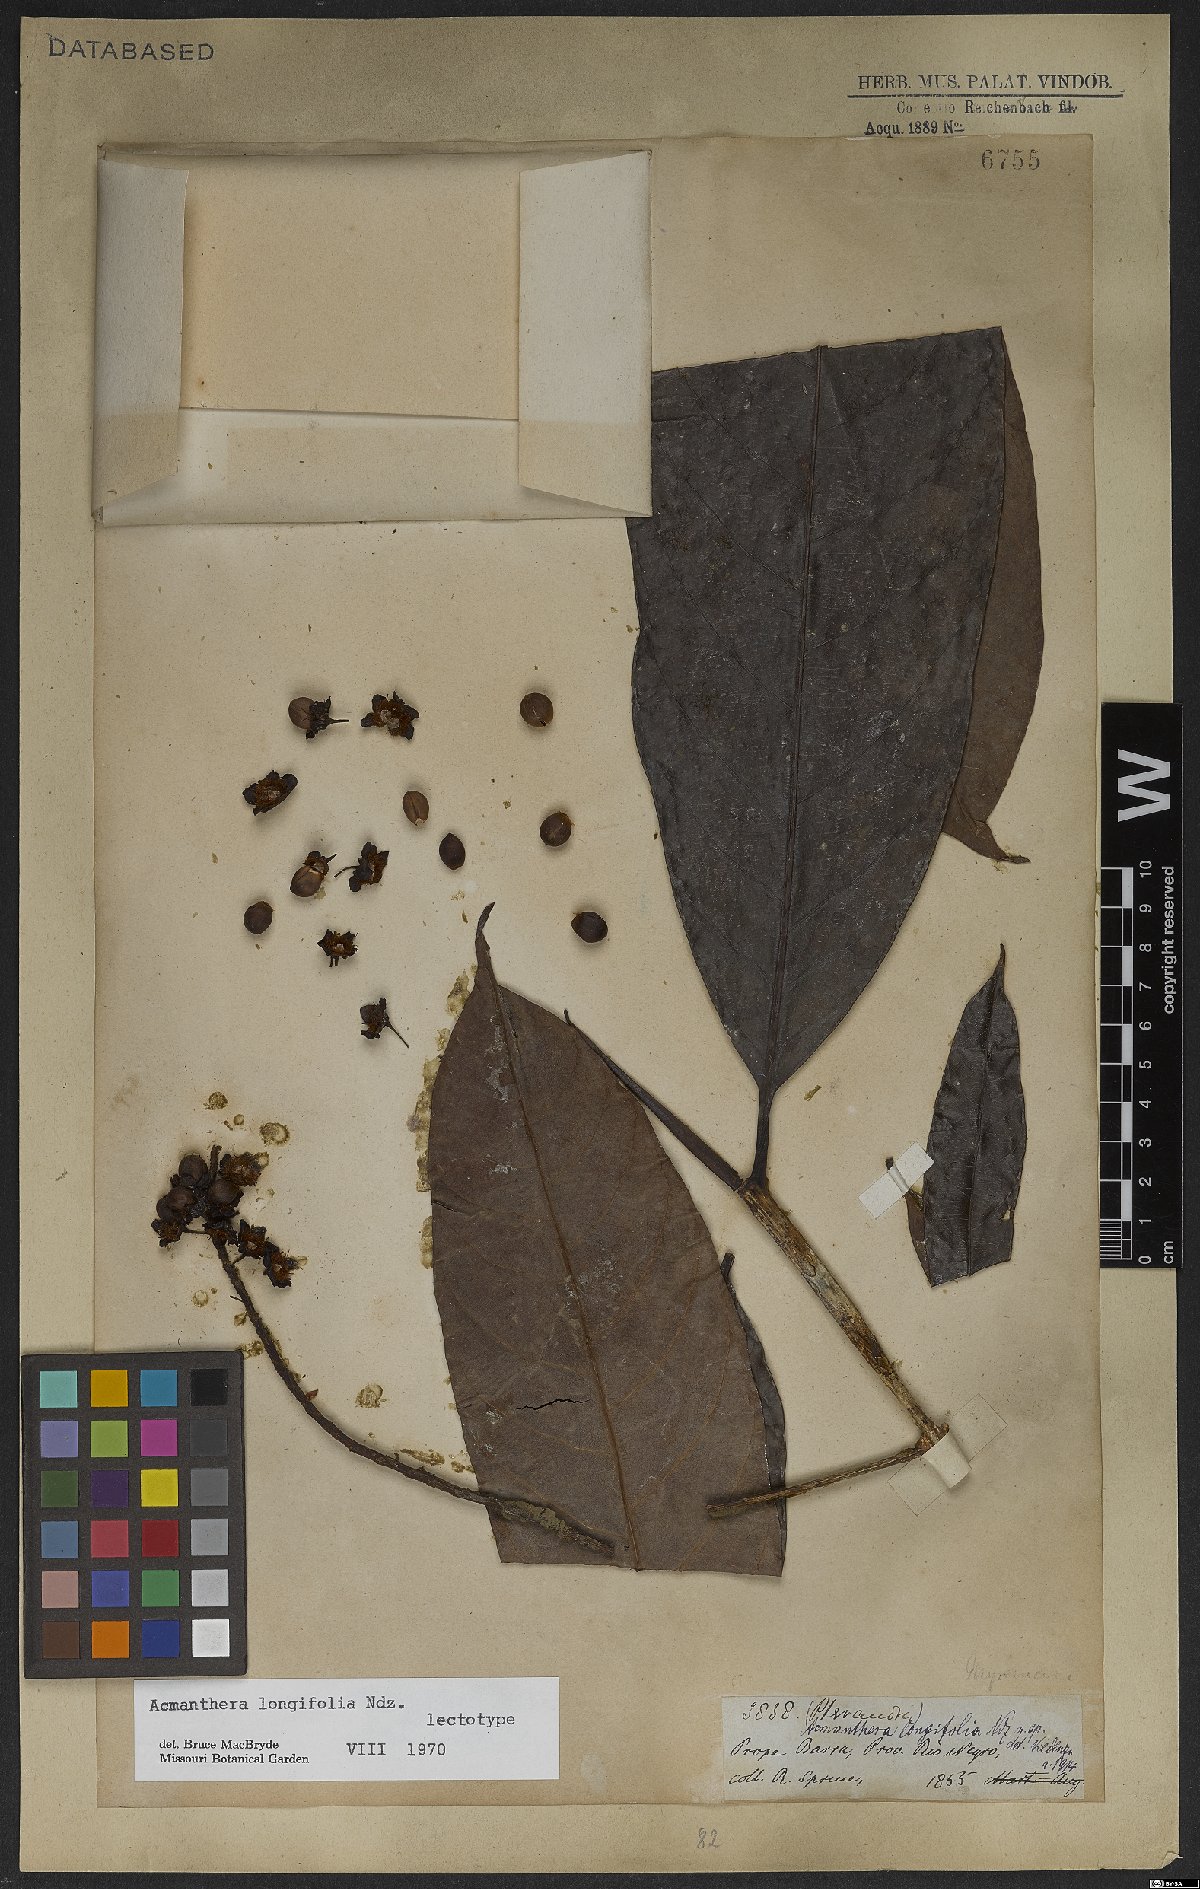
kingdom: Plantae
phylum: Tracheophyta
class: Magnoliopsida
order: Malpighiales
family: Malpighiaceae
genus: Acmanthera
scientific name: Acmanthera longifolia
